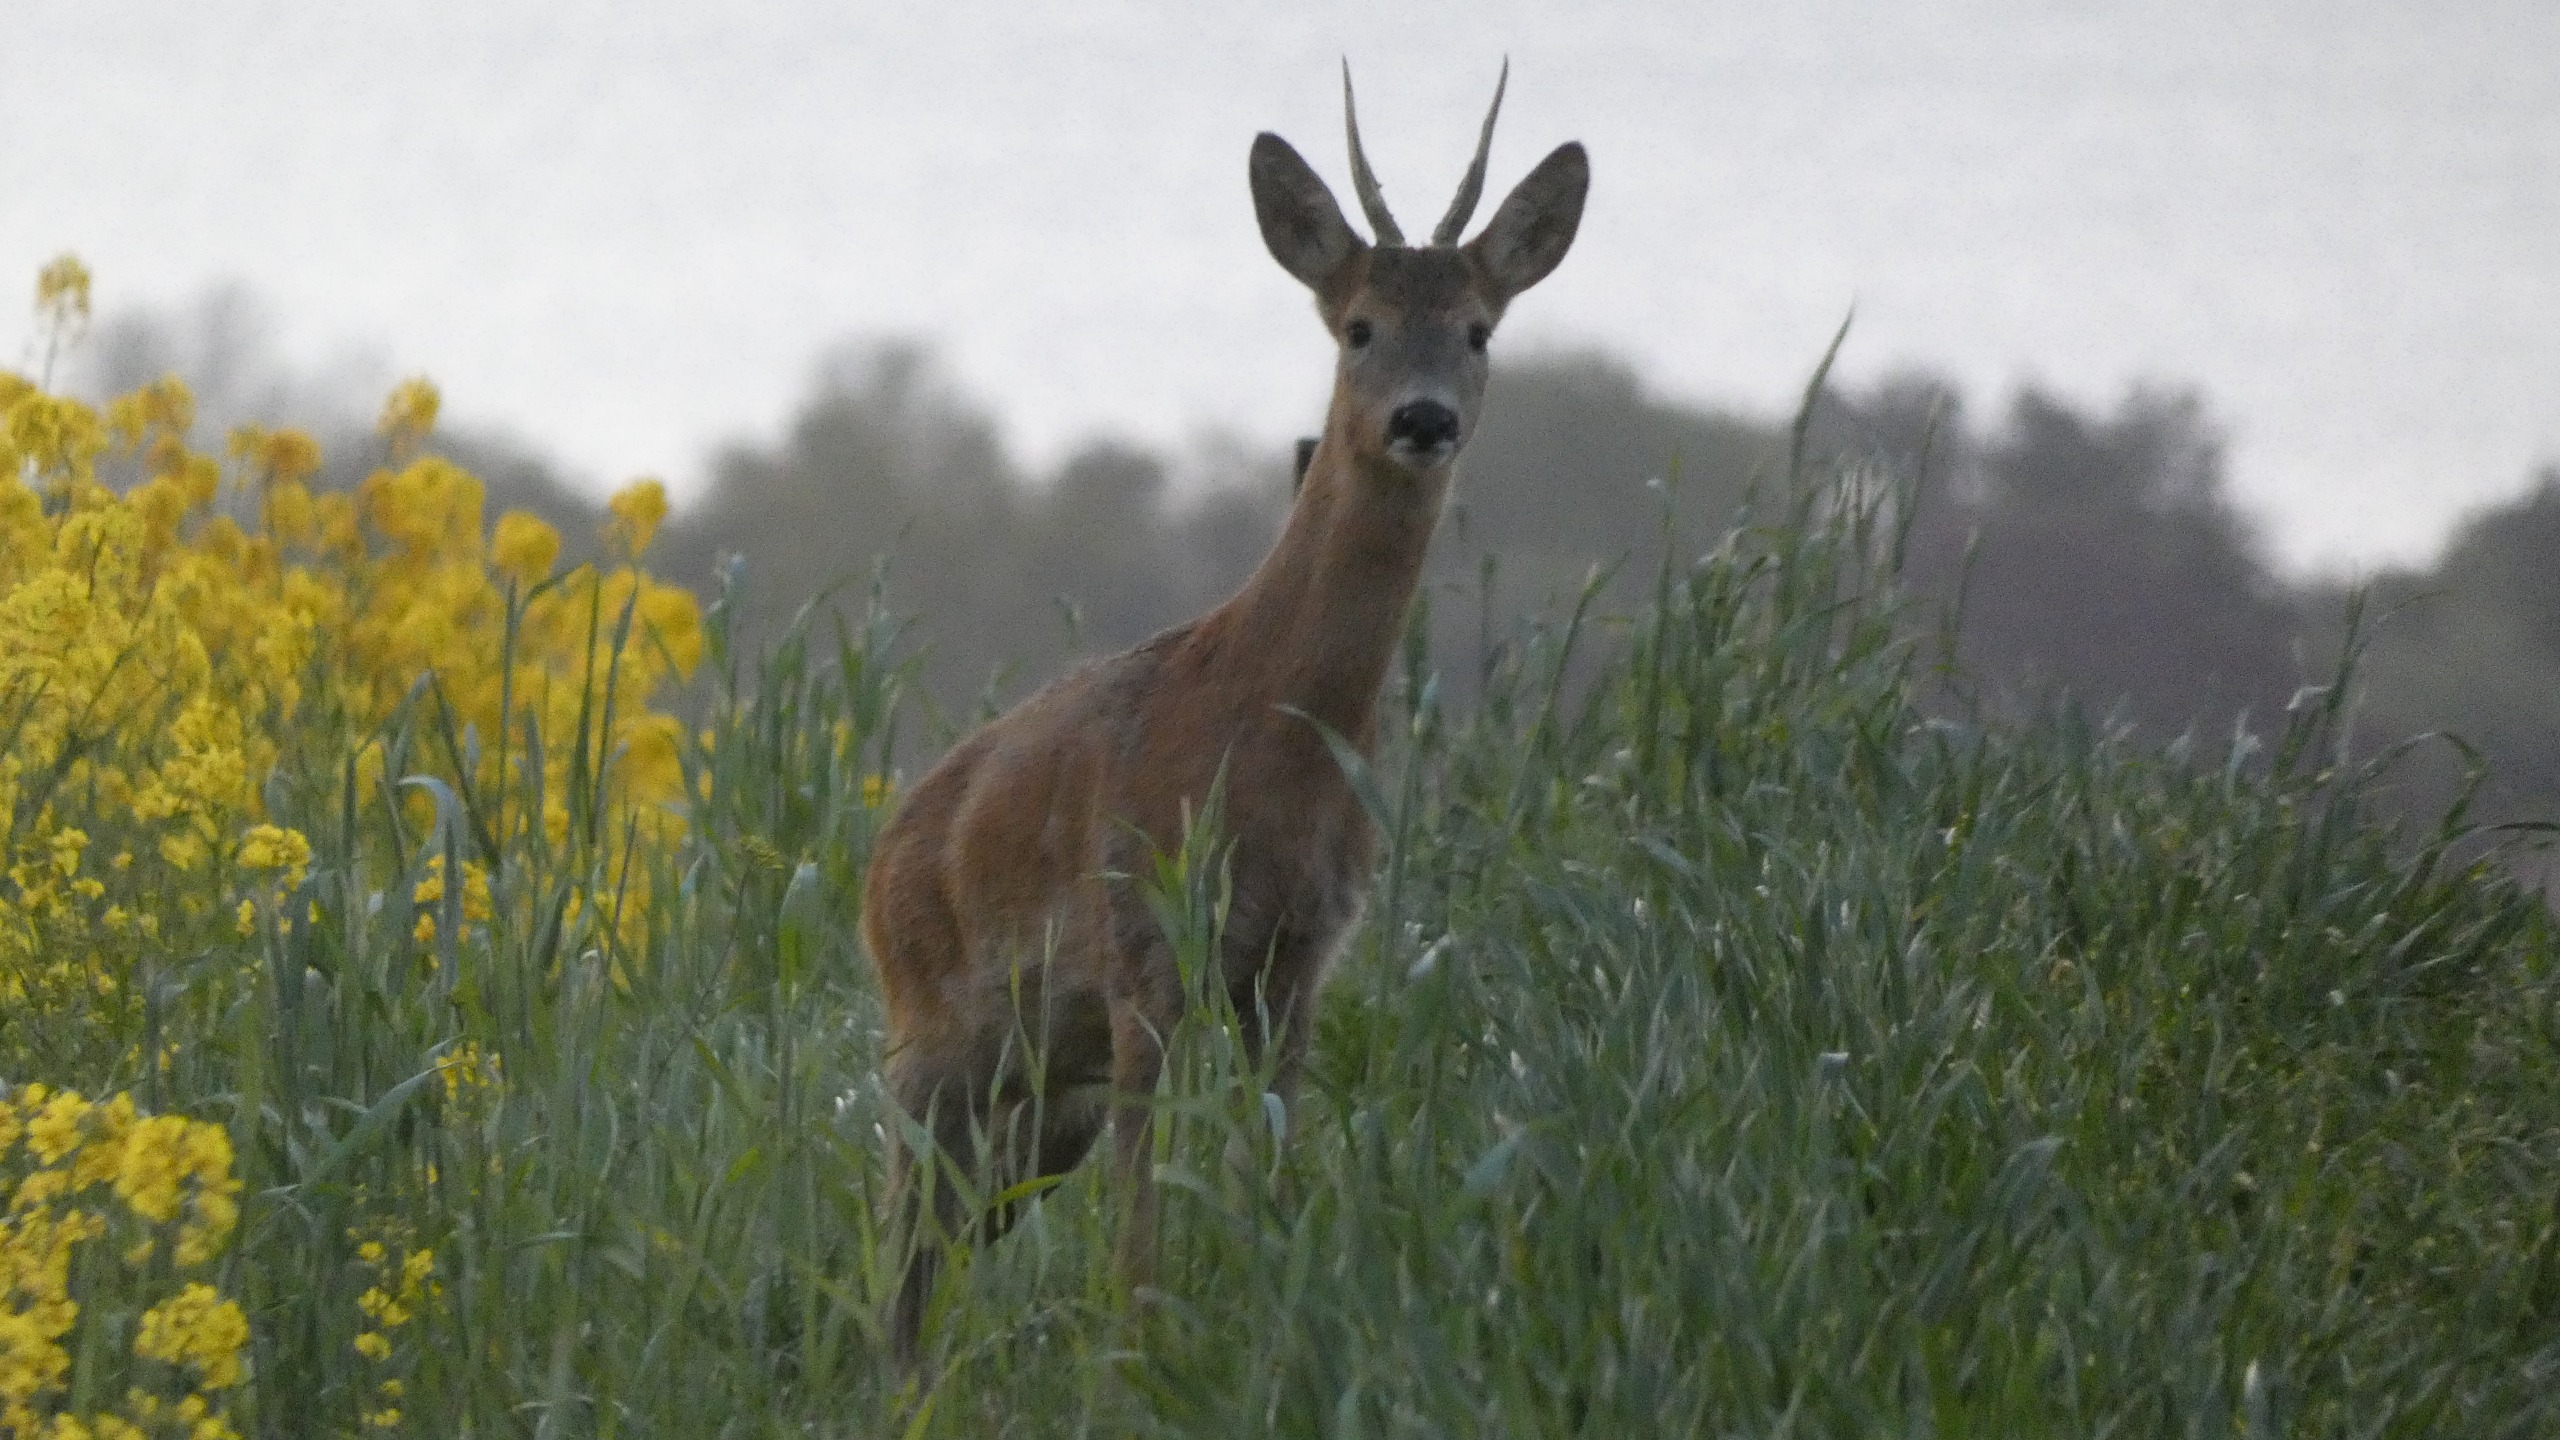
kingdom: Animalia
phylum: Chordata
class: Mammalia
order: Artiodactyla
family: Cervidae
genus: Capreolus
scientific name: Capreolus capreolus
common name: Rådyr
